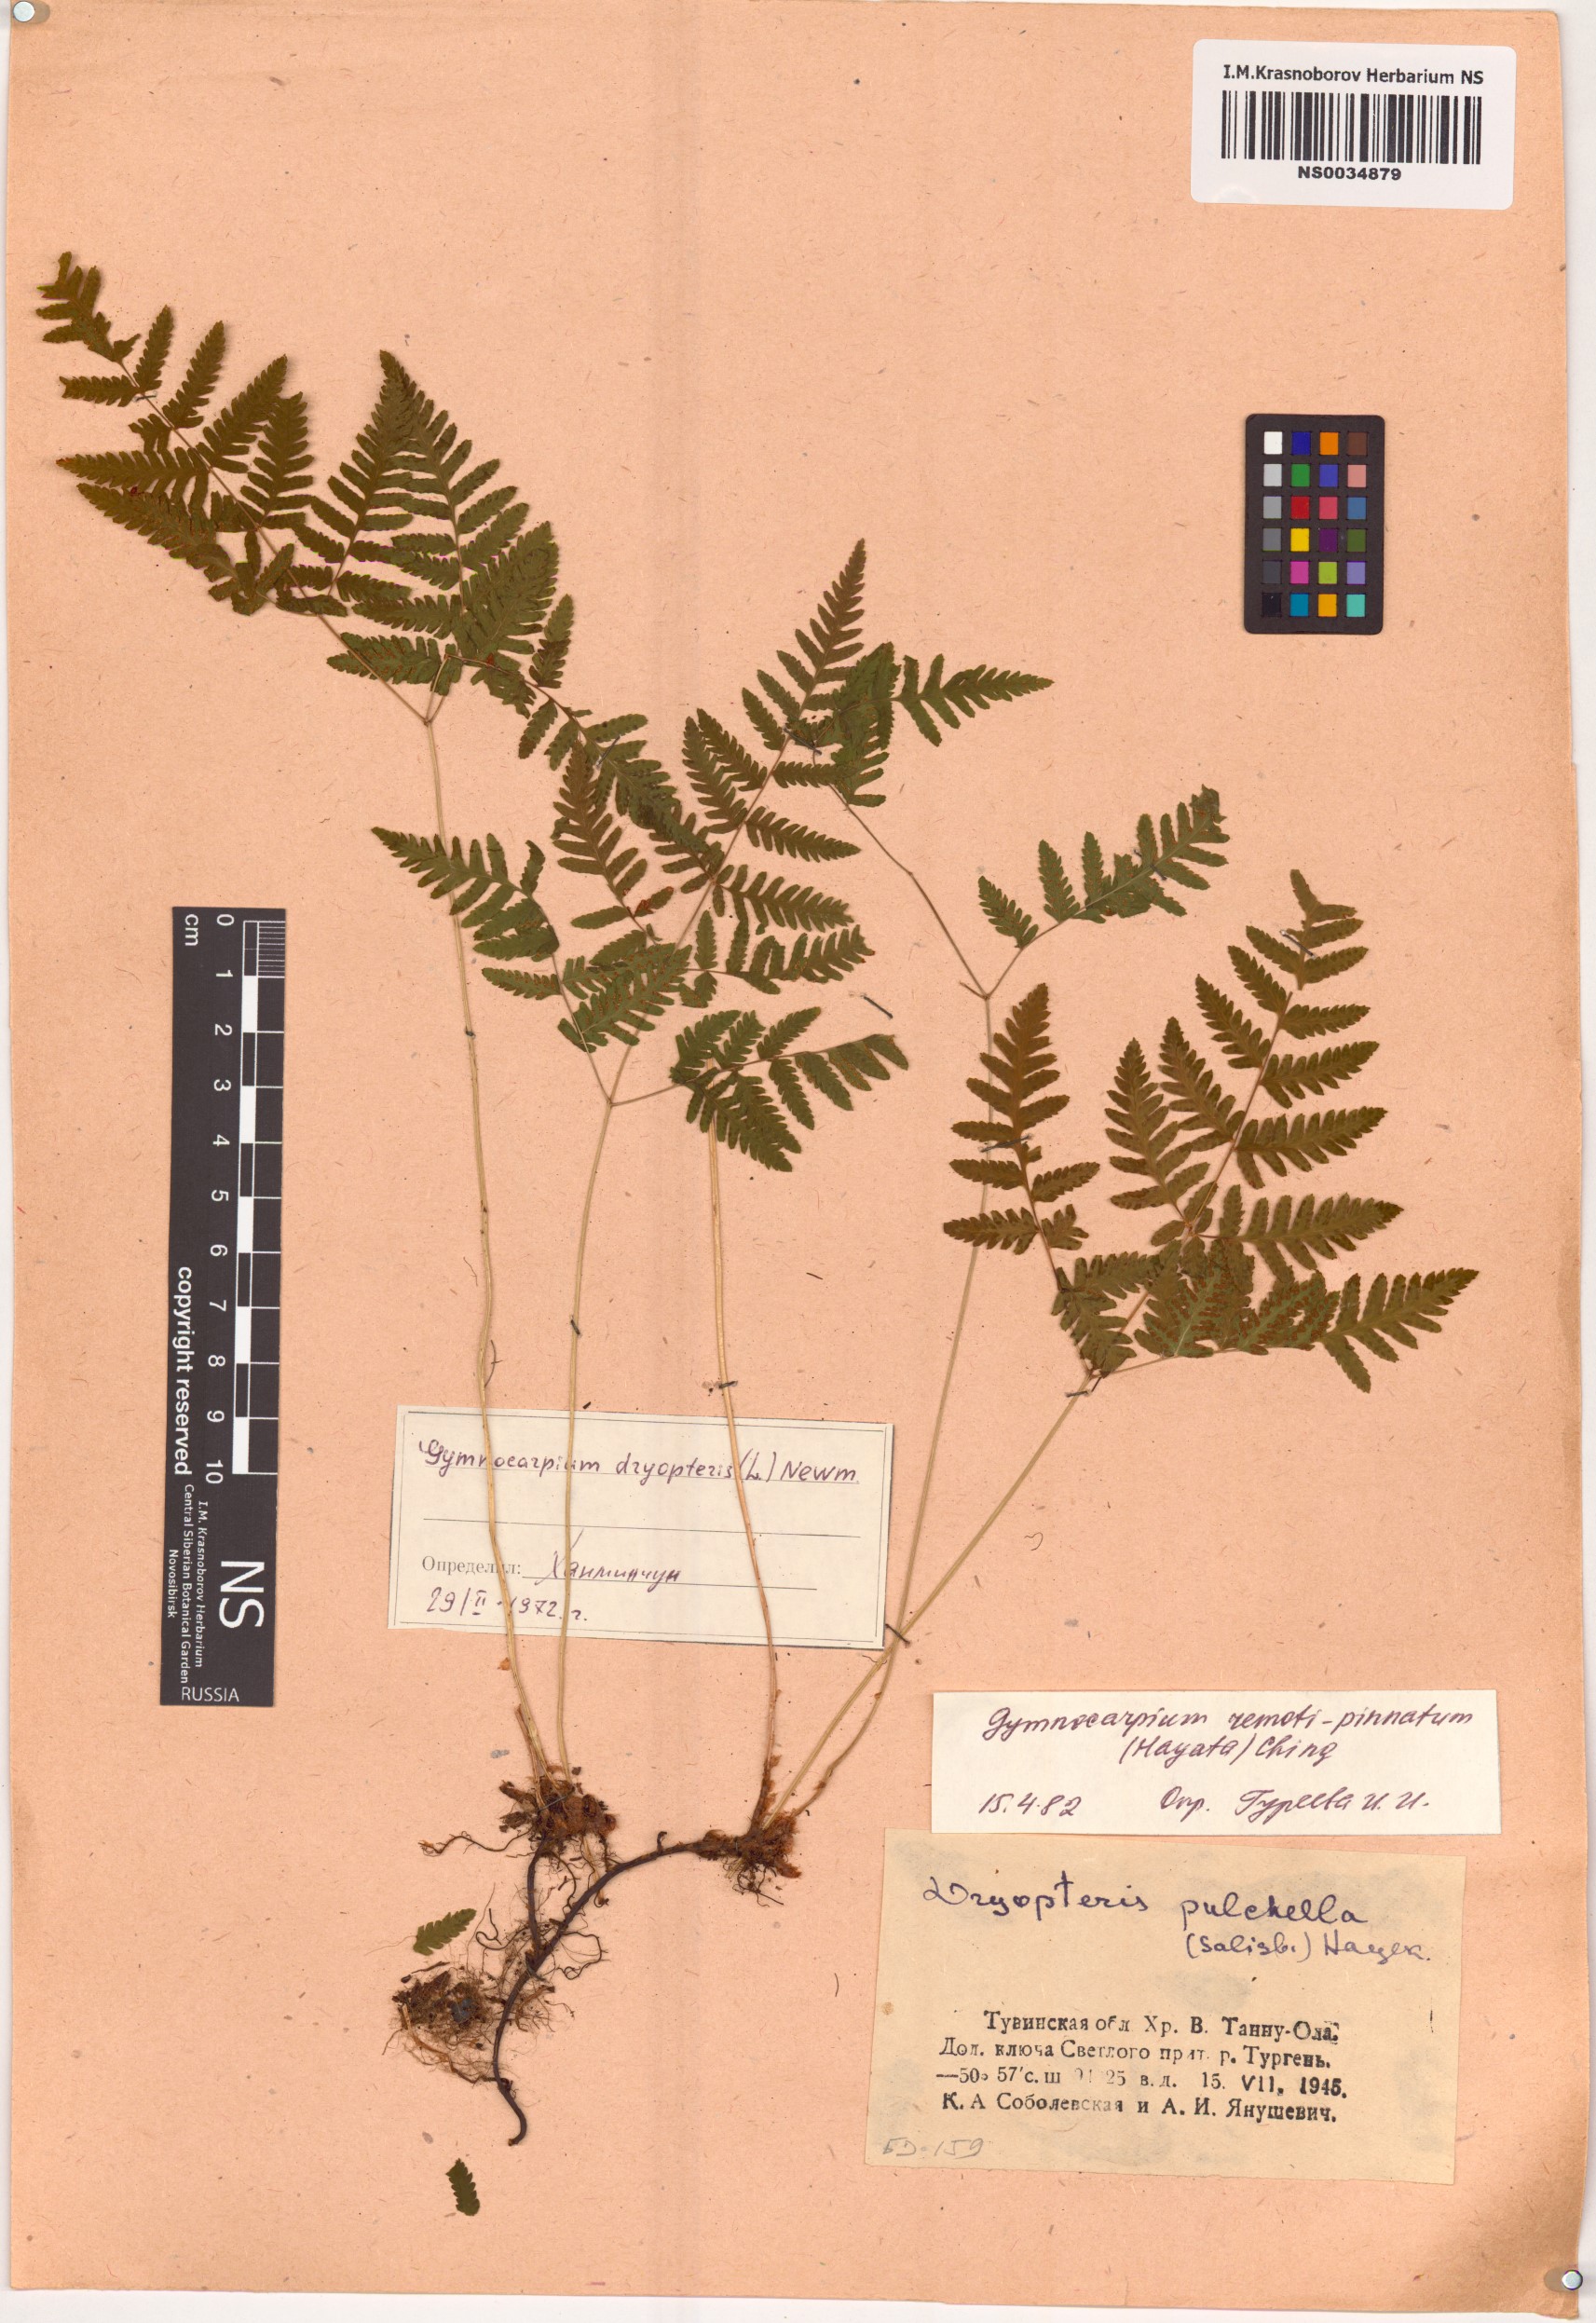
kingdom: Plantae
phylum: Tracheophyta
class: Polypodiopsida
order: Polypodiales
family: Cystopteridaceae
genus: Gymnocarpium
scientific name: Gymnocarpium remotepinnatum
